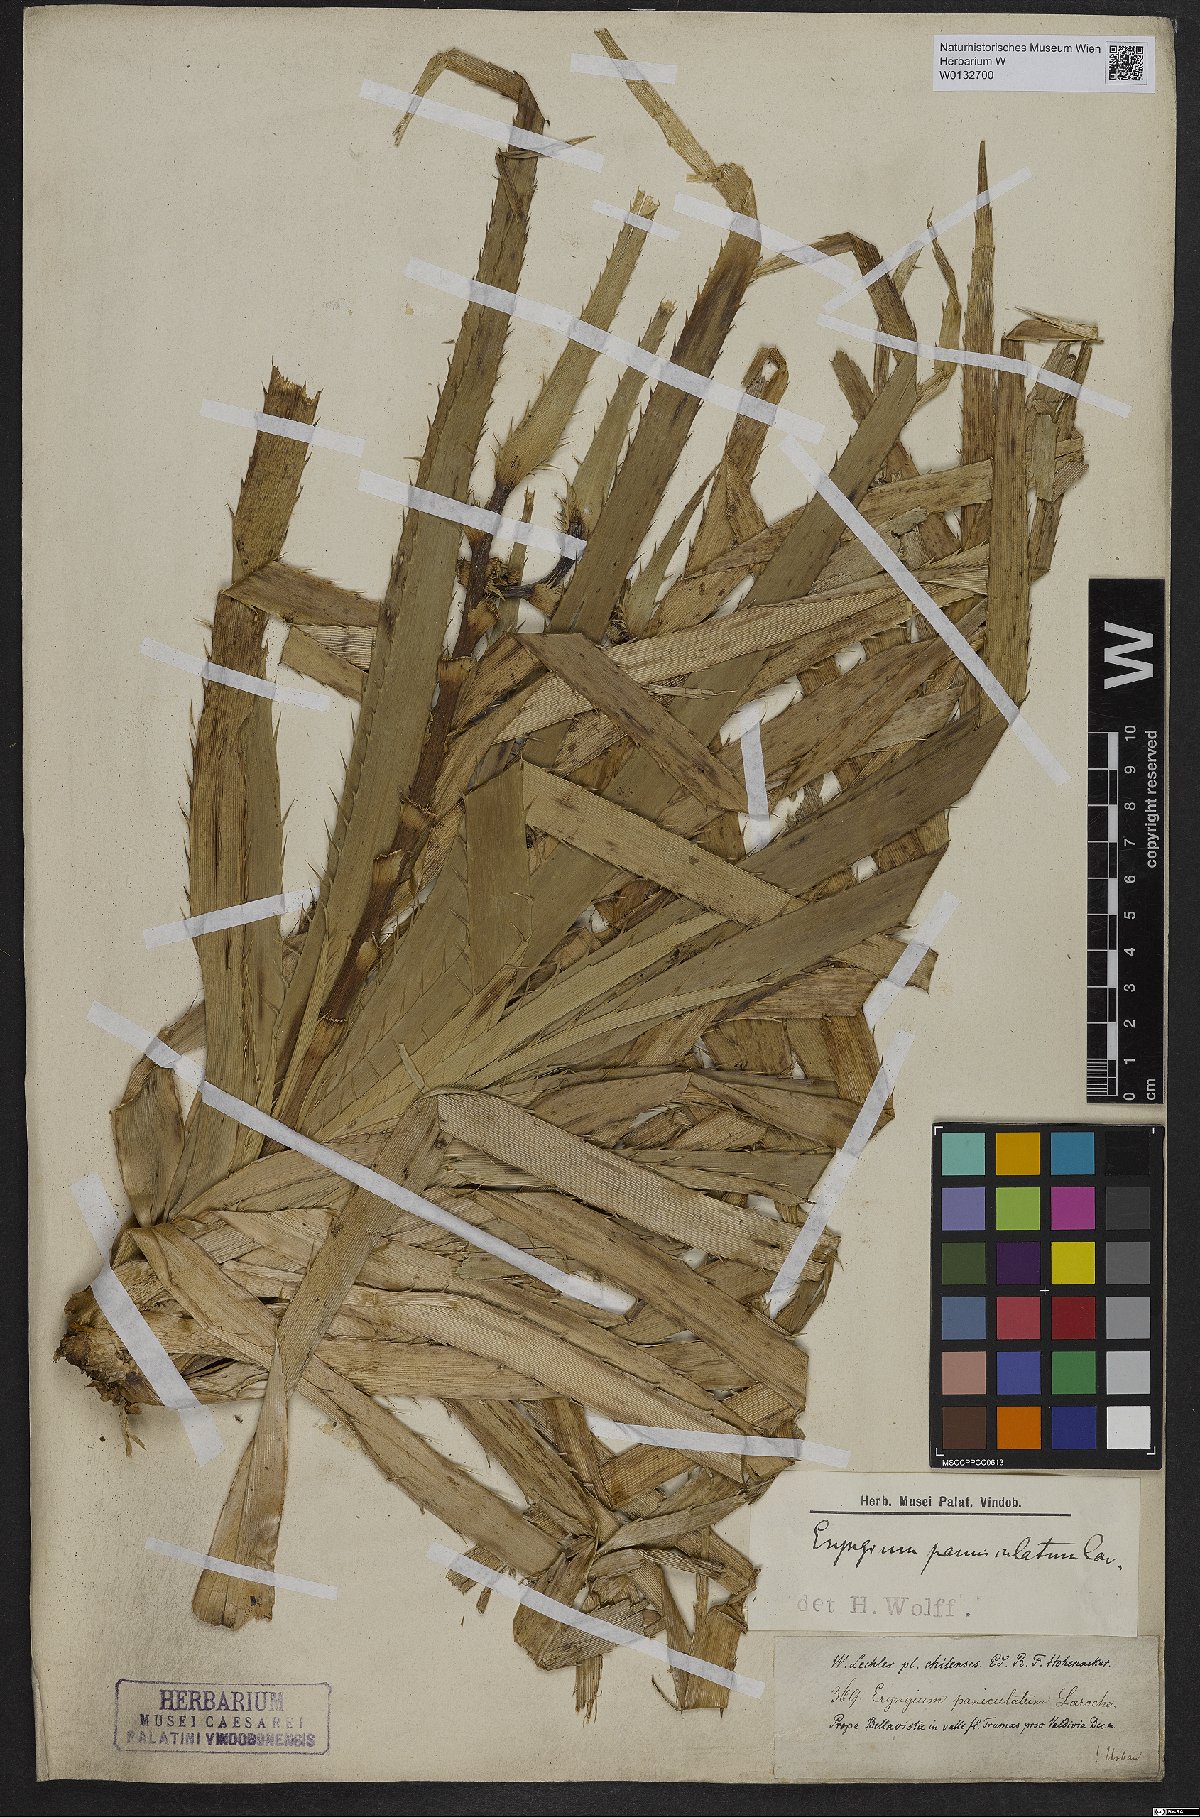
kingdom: Plantae
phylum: Tracheophyta
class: Magnoliopsida
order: Apiales
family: Apiaceae
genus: Eryngium
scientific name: Eryngium humboldtii
